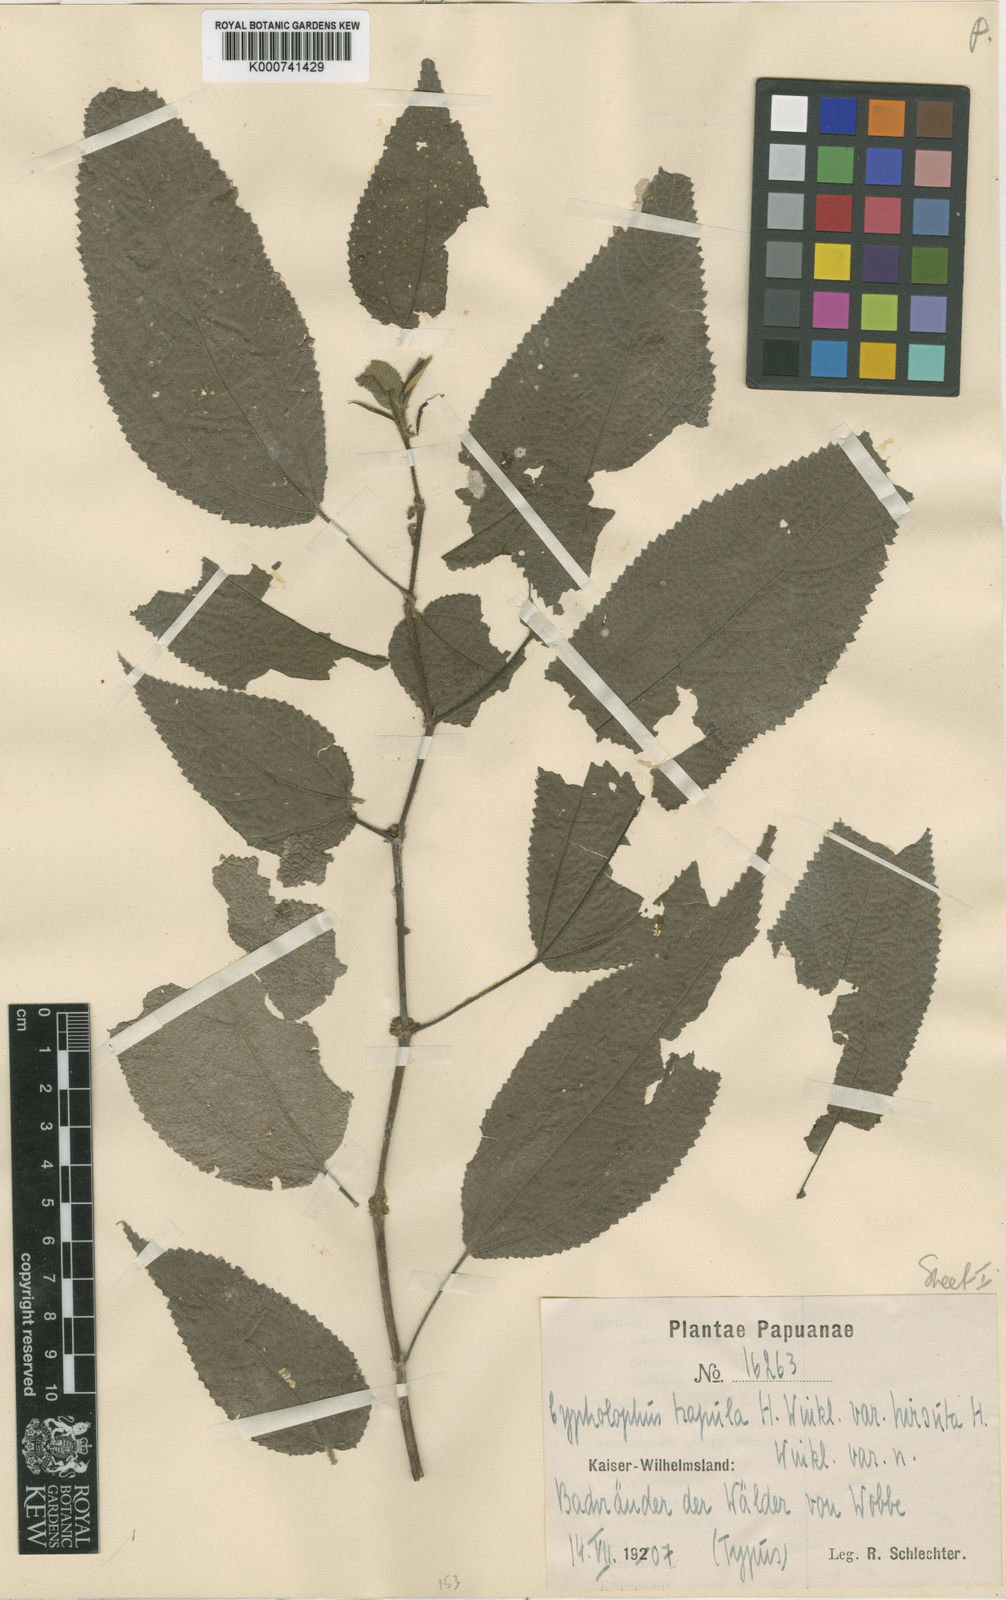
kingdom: Plantae
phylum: Tracheophyta
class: Magnoliopsida
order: Rosales
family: Urticaceae
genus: Cypholophus
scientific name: Cypholophus trapula
